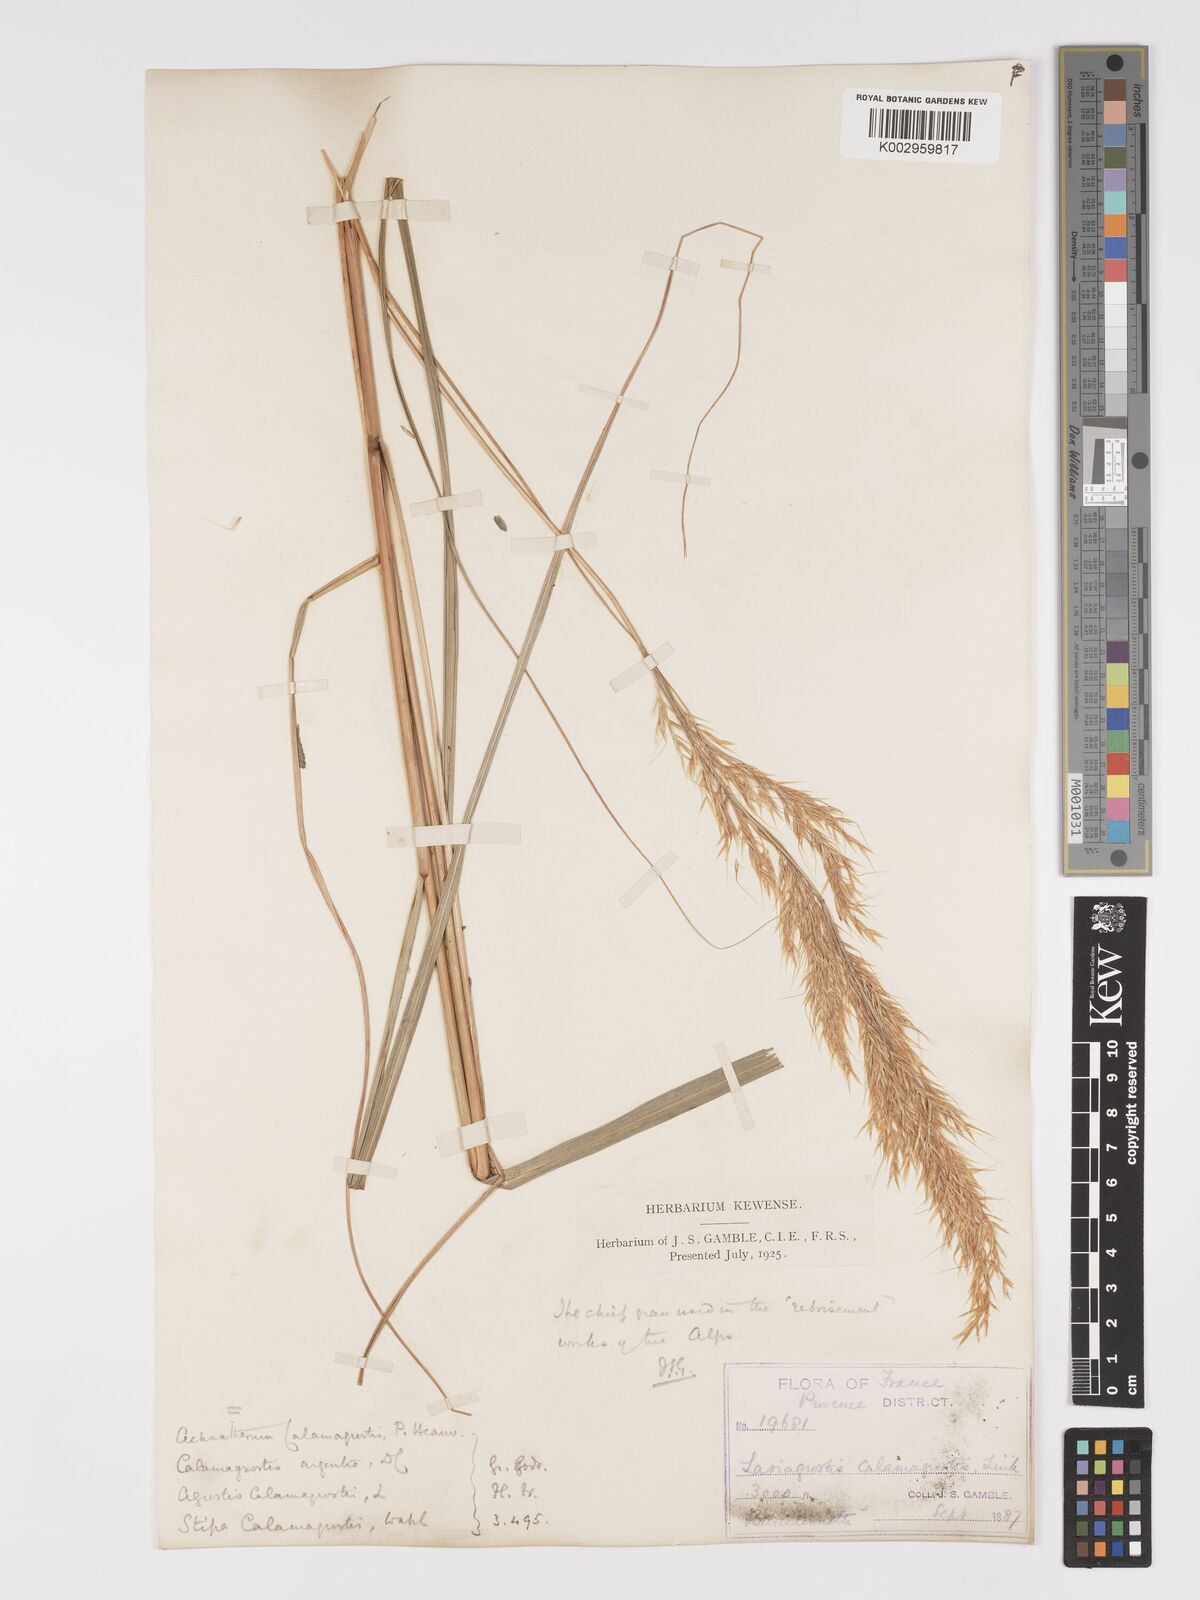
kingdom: Plantae
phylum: Tracheophyta
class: Liliopsida
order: Poales
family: Poaceae
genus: Achnatherum
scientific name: Achnatherum calamagrostis
